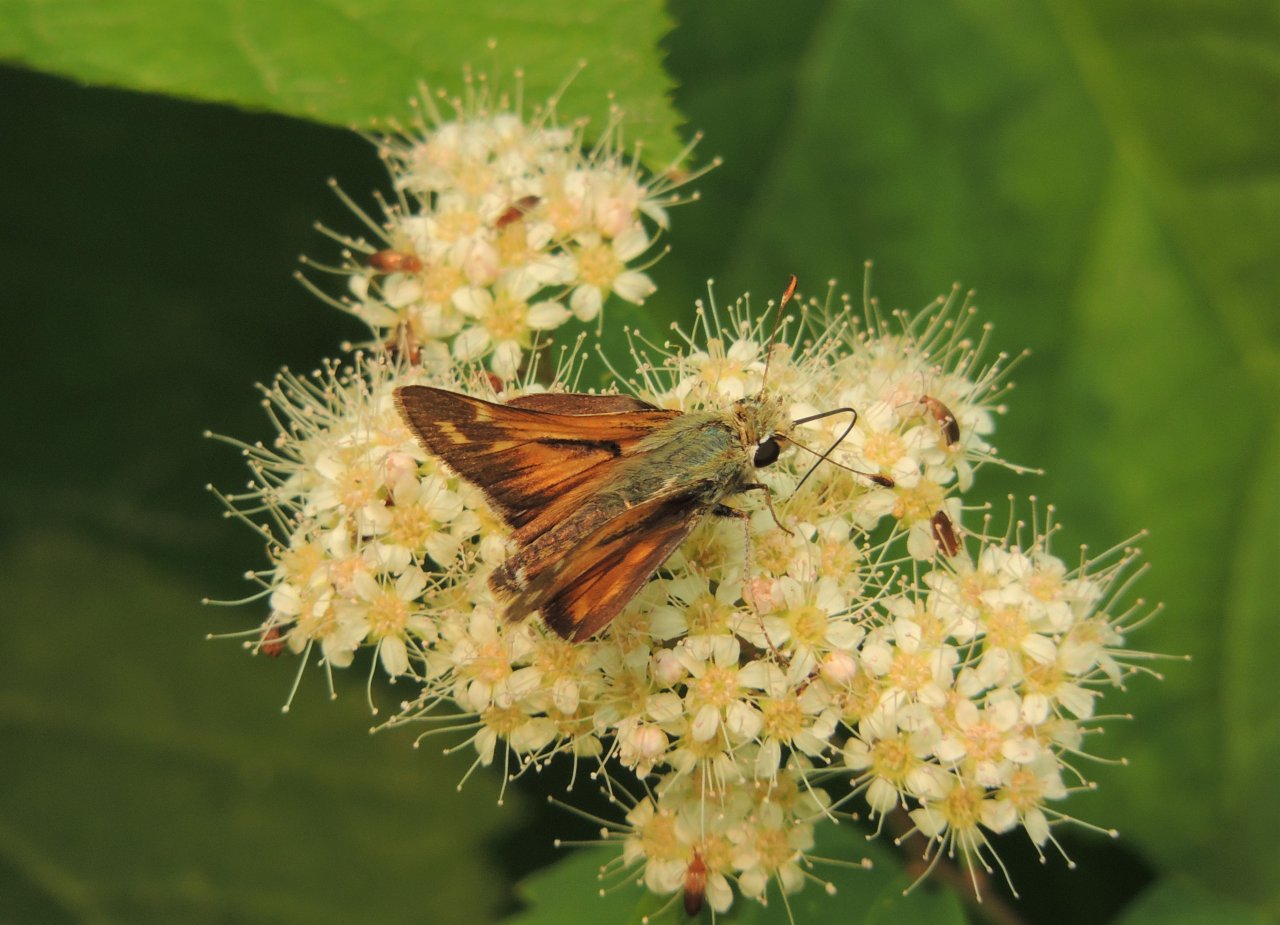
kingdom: Animalia
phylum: Arthropoda
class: Insecta
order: Lepidoptera
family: Hesperiidae
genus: Hesperia
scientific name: Hesperia comma
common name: Western Branded Skipper
